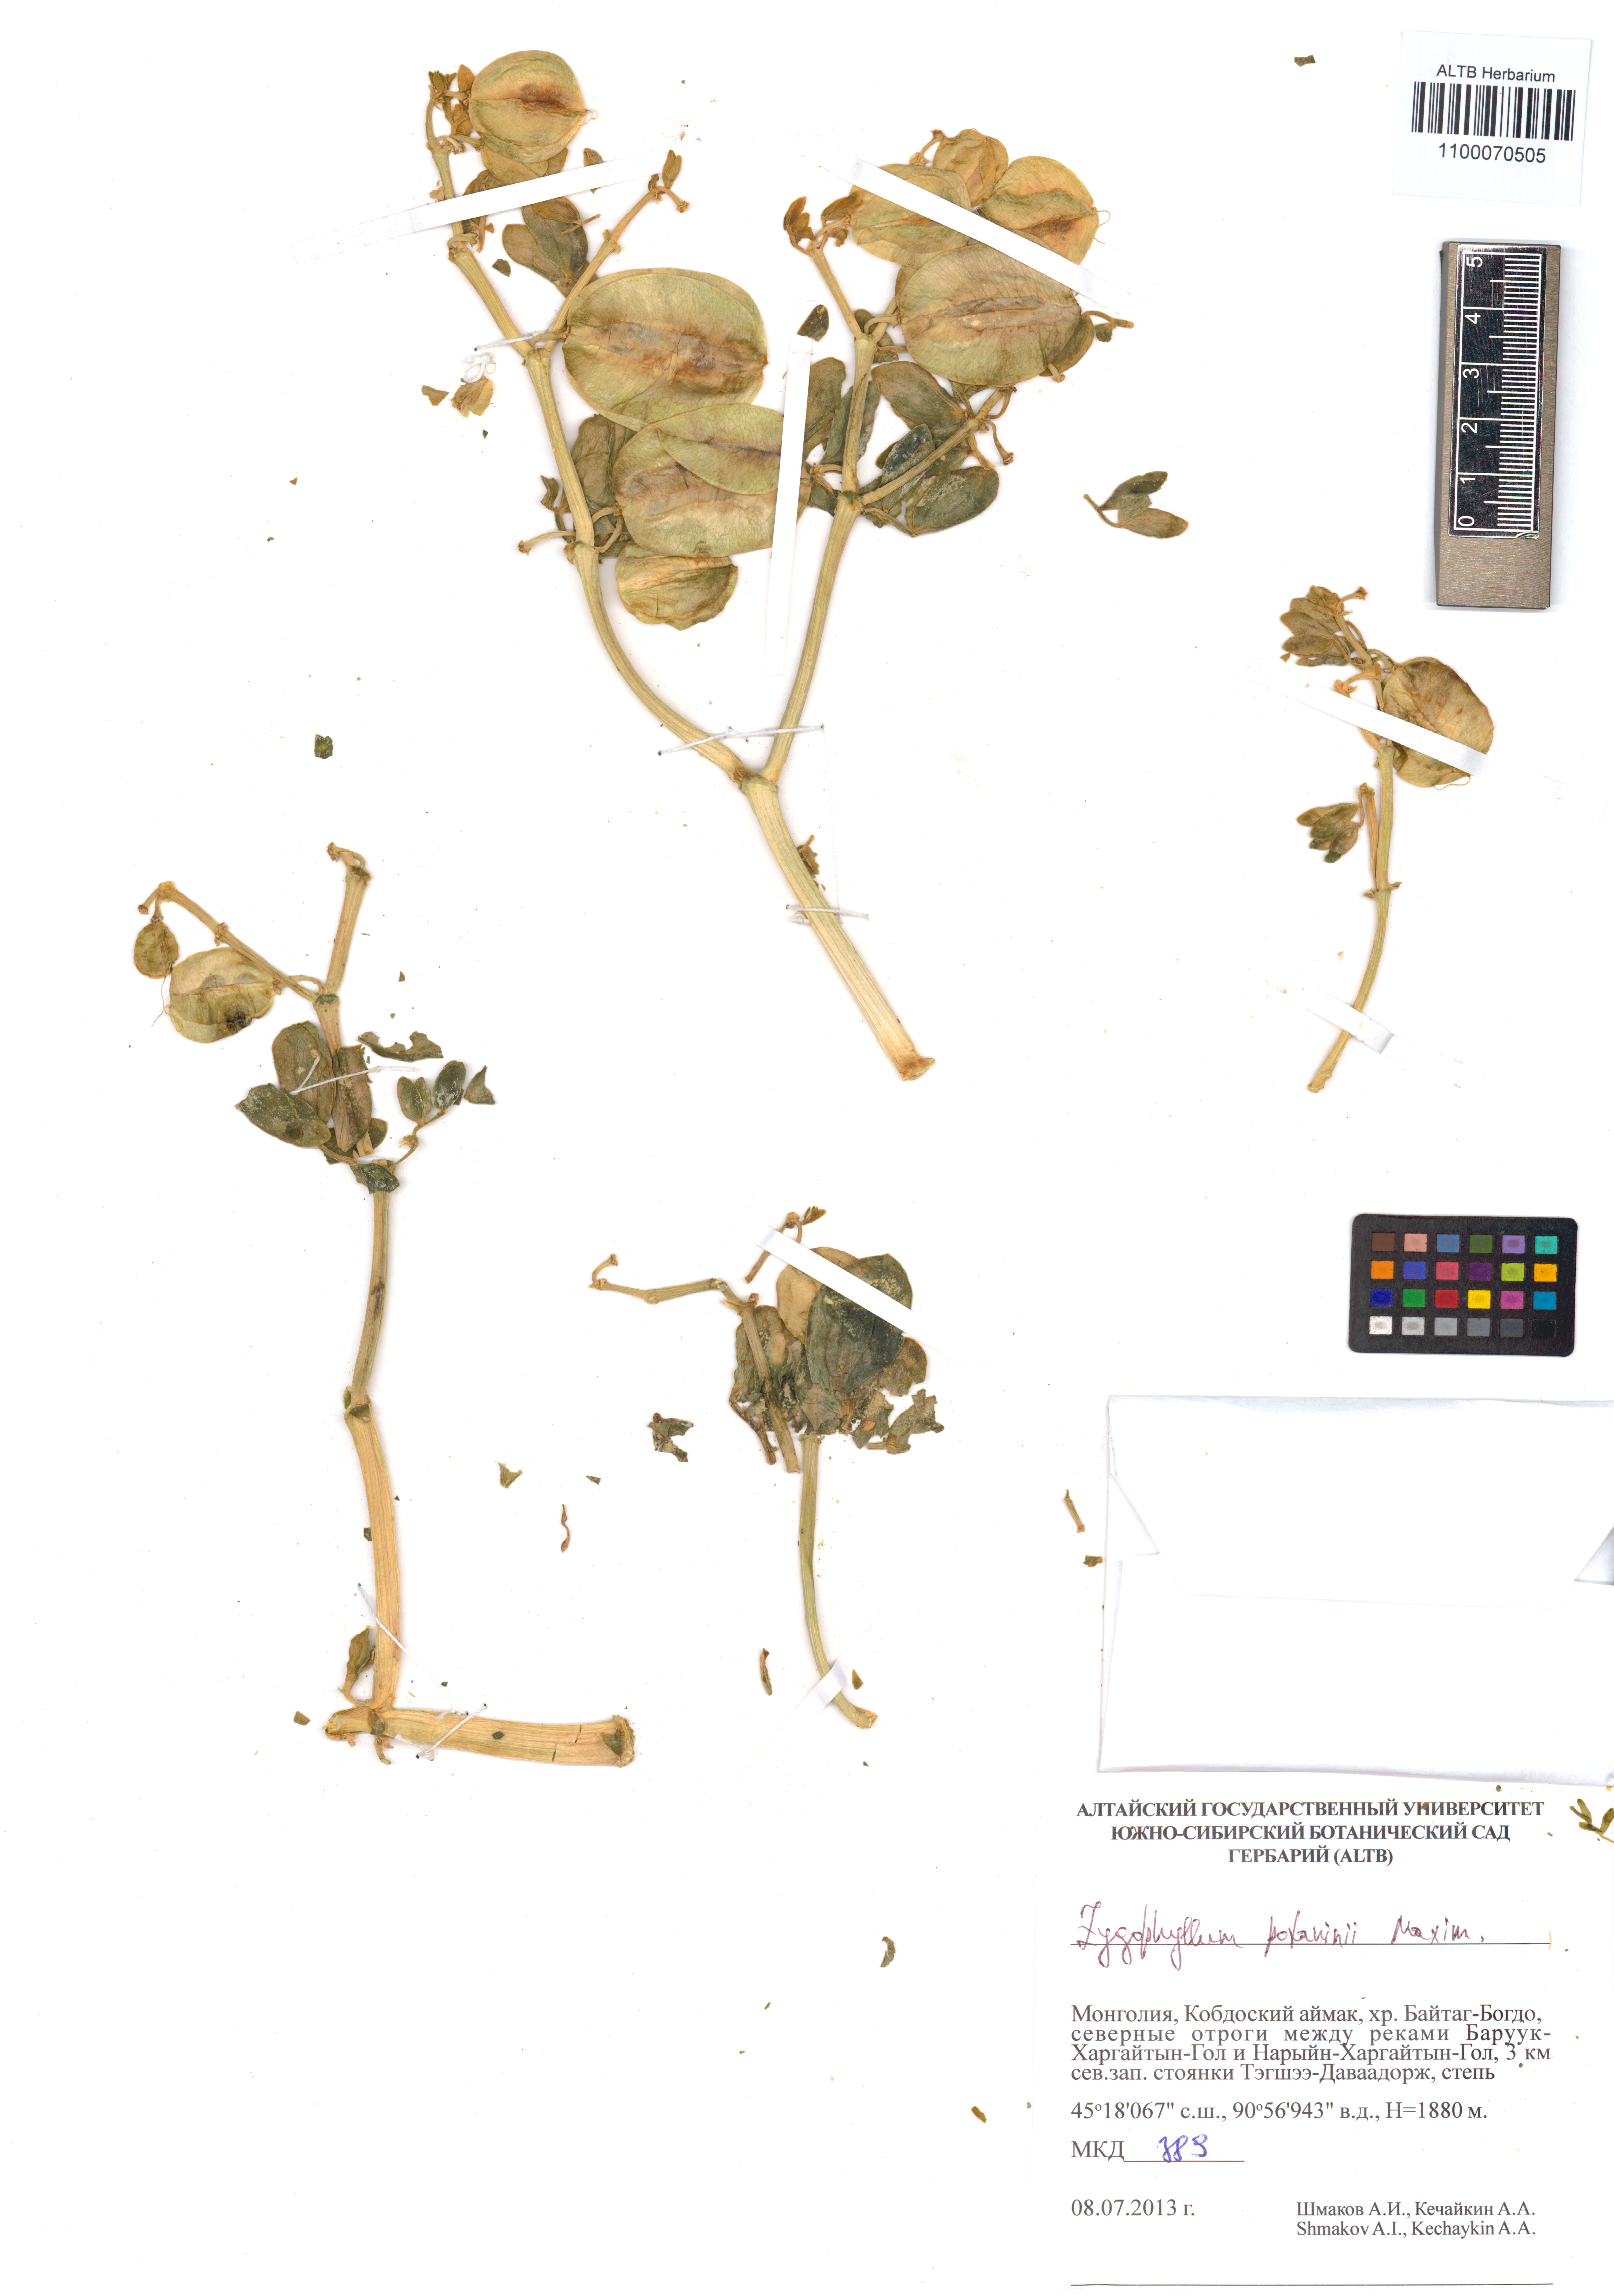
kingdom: Plantae
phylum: Tracheophyta
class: Magnoliopsida
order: Zygophyllales
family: Zygophyllaceae
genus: Zygophyllum
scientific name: Zygophyllum potaninii
